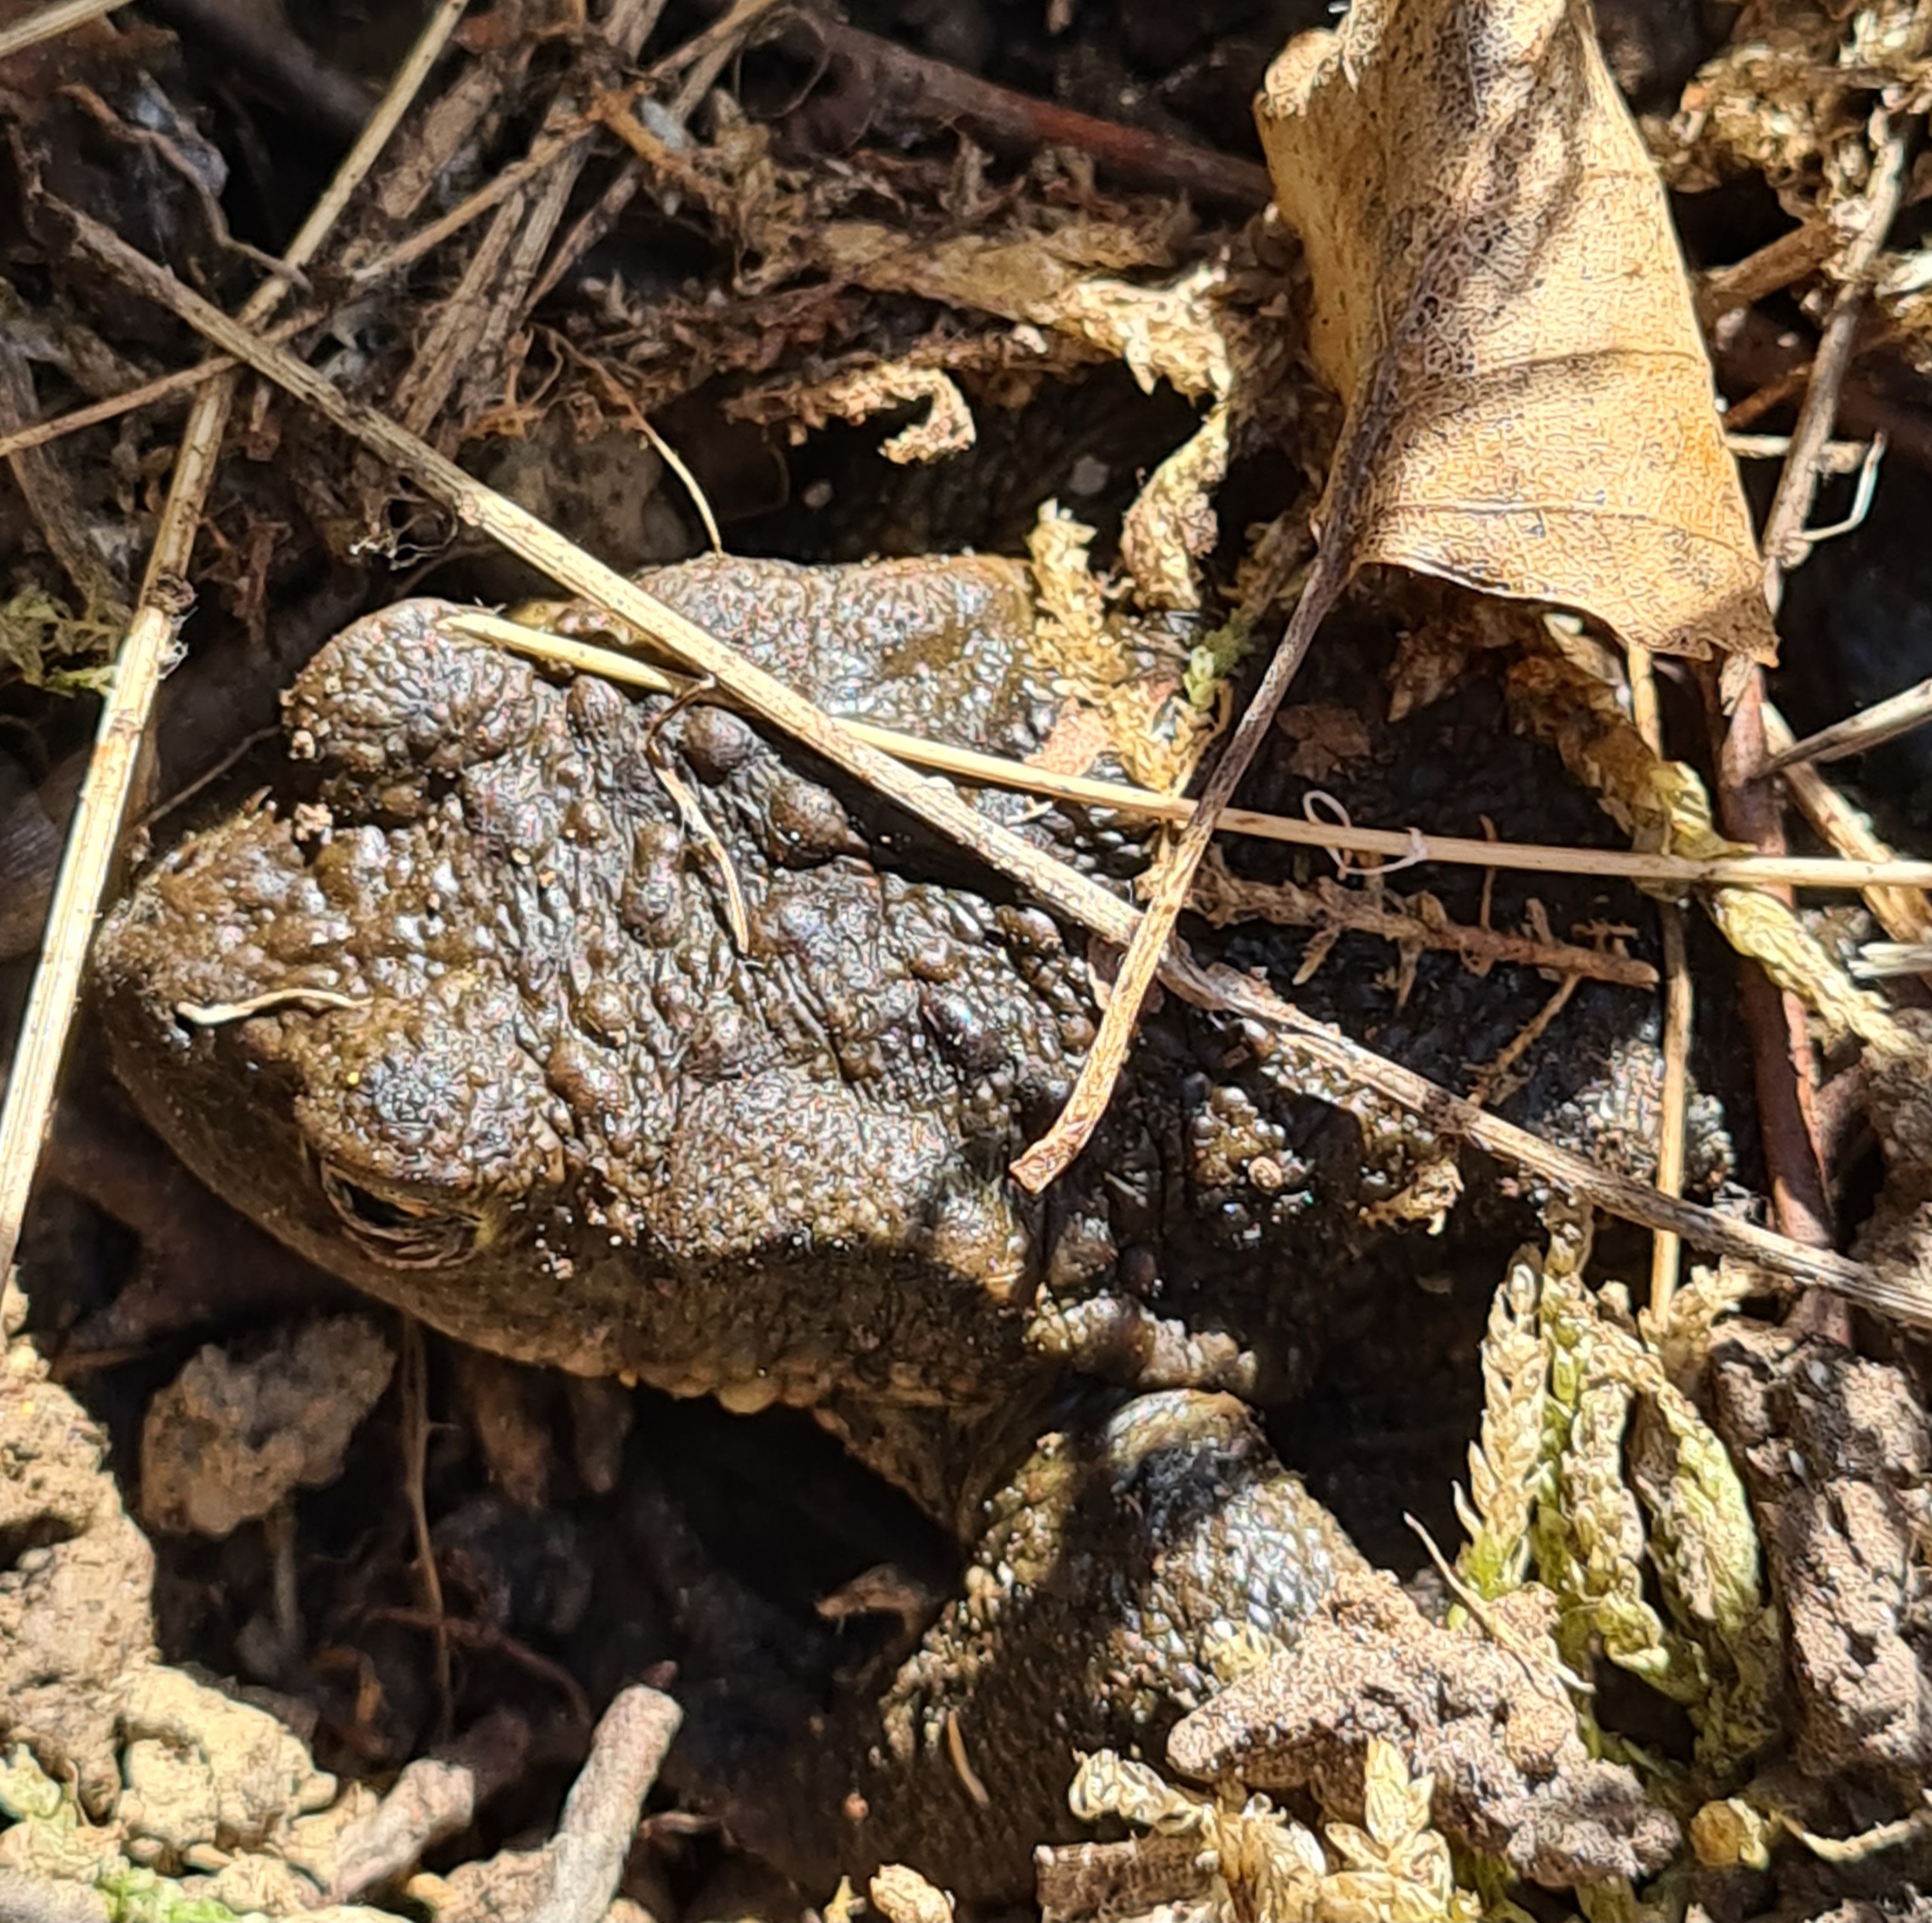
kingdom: Animalia
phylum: Chordata
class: Amphibia
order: Anura
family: Bufonidae
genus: Bufo
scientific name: Bufo bufo
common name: Skrubtudse
